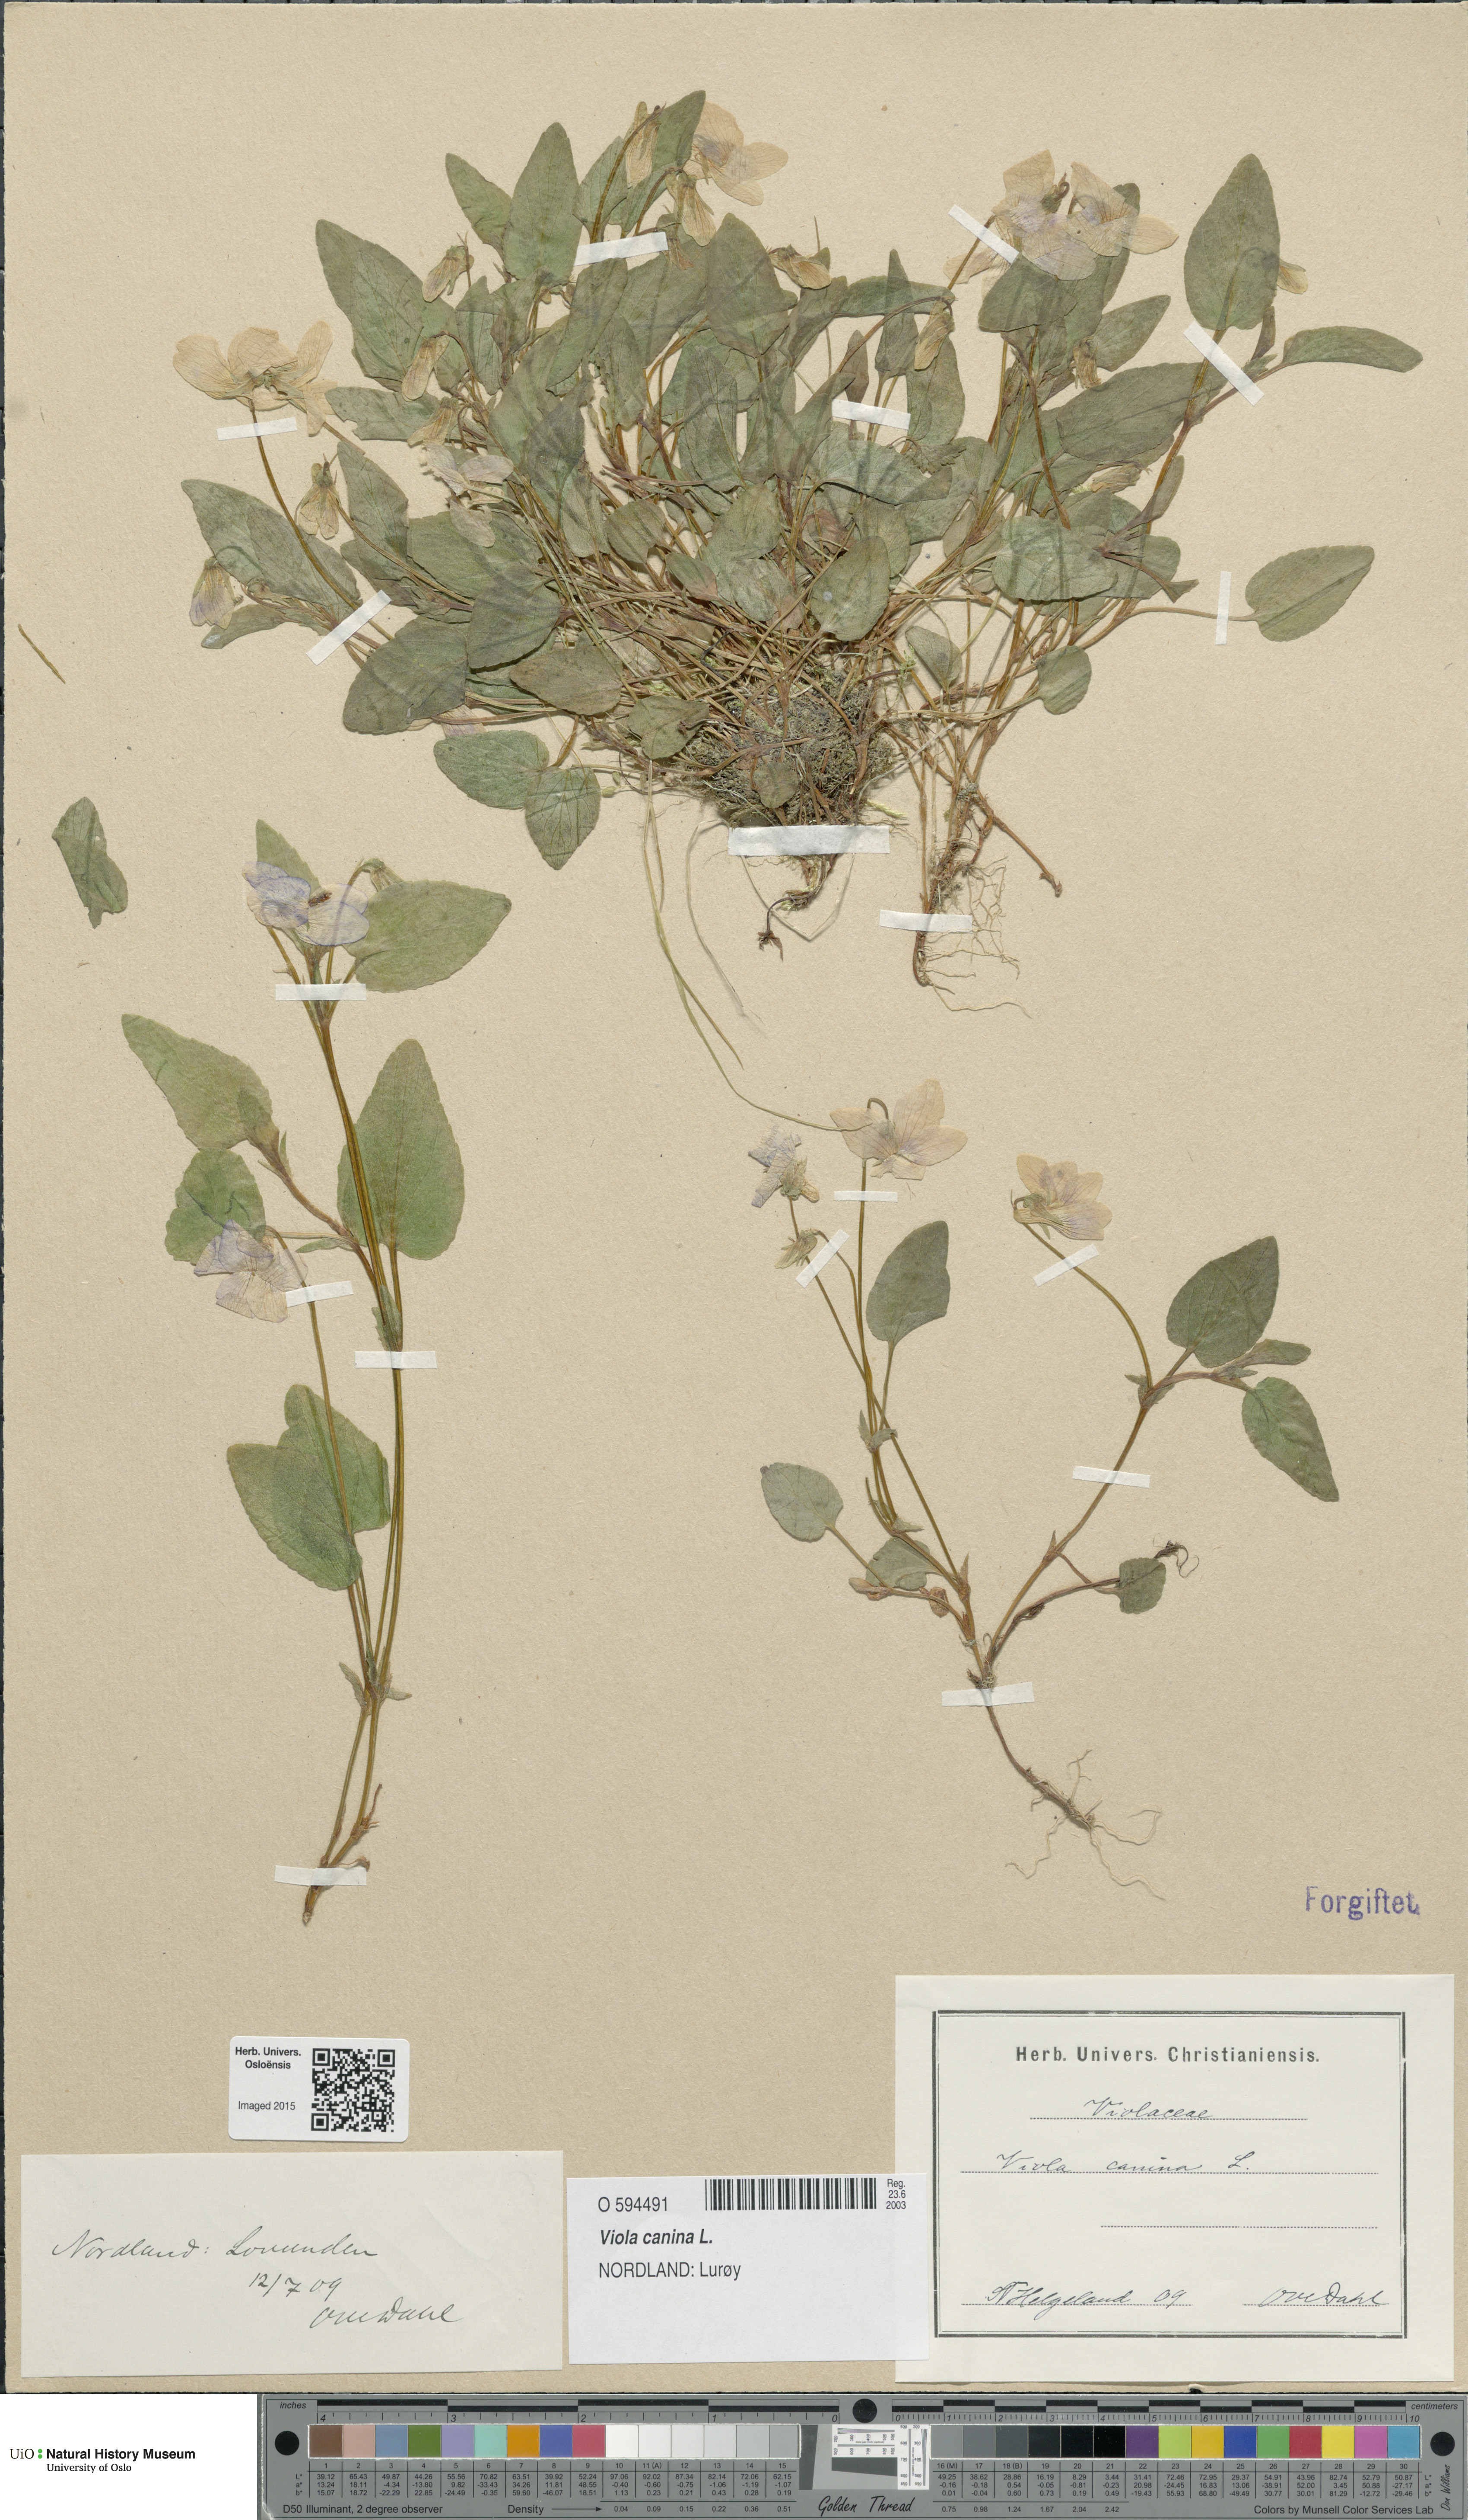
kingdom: Plantae
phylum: Tracheophyta
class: Magnoliopsida
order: Malpighiales
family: Violaceae
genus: Viola
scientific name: Viola canina
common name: Heath dog-violet
